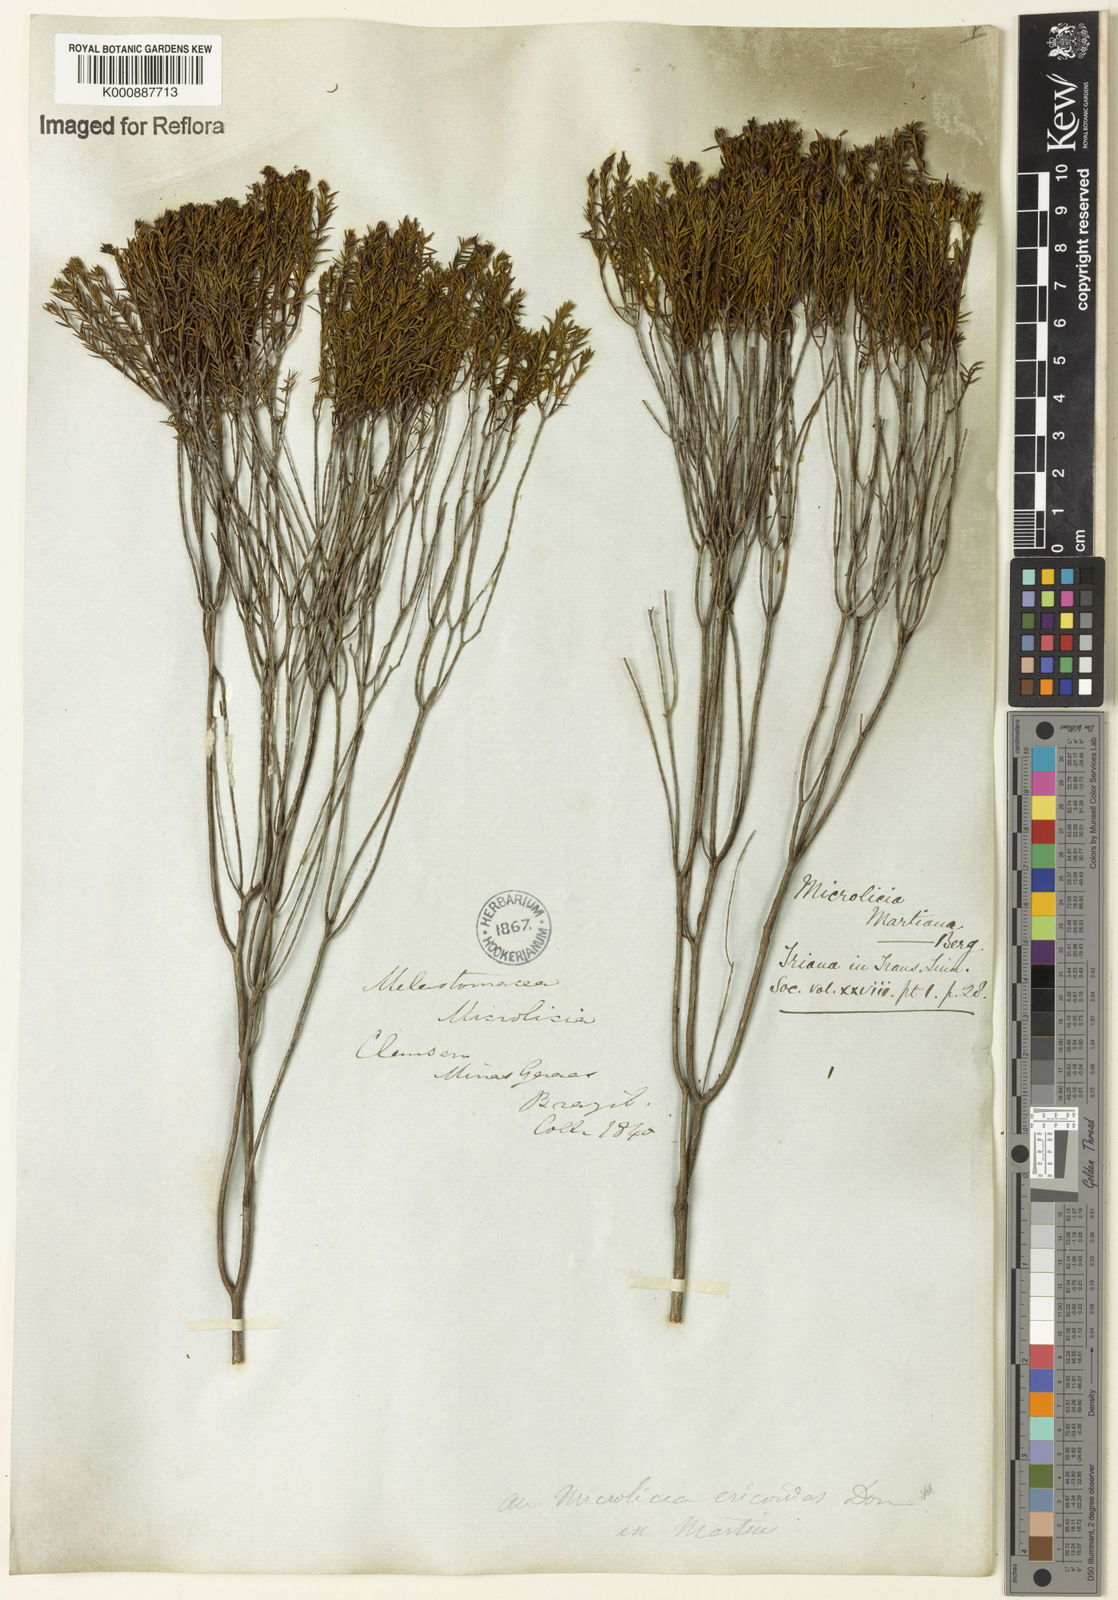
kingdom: Plantae
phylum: Tracheophyta
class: Magnoliopsida
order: Myrtales
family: Melastomataceae
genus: Microlicia
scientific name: Microlicia martiana
